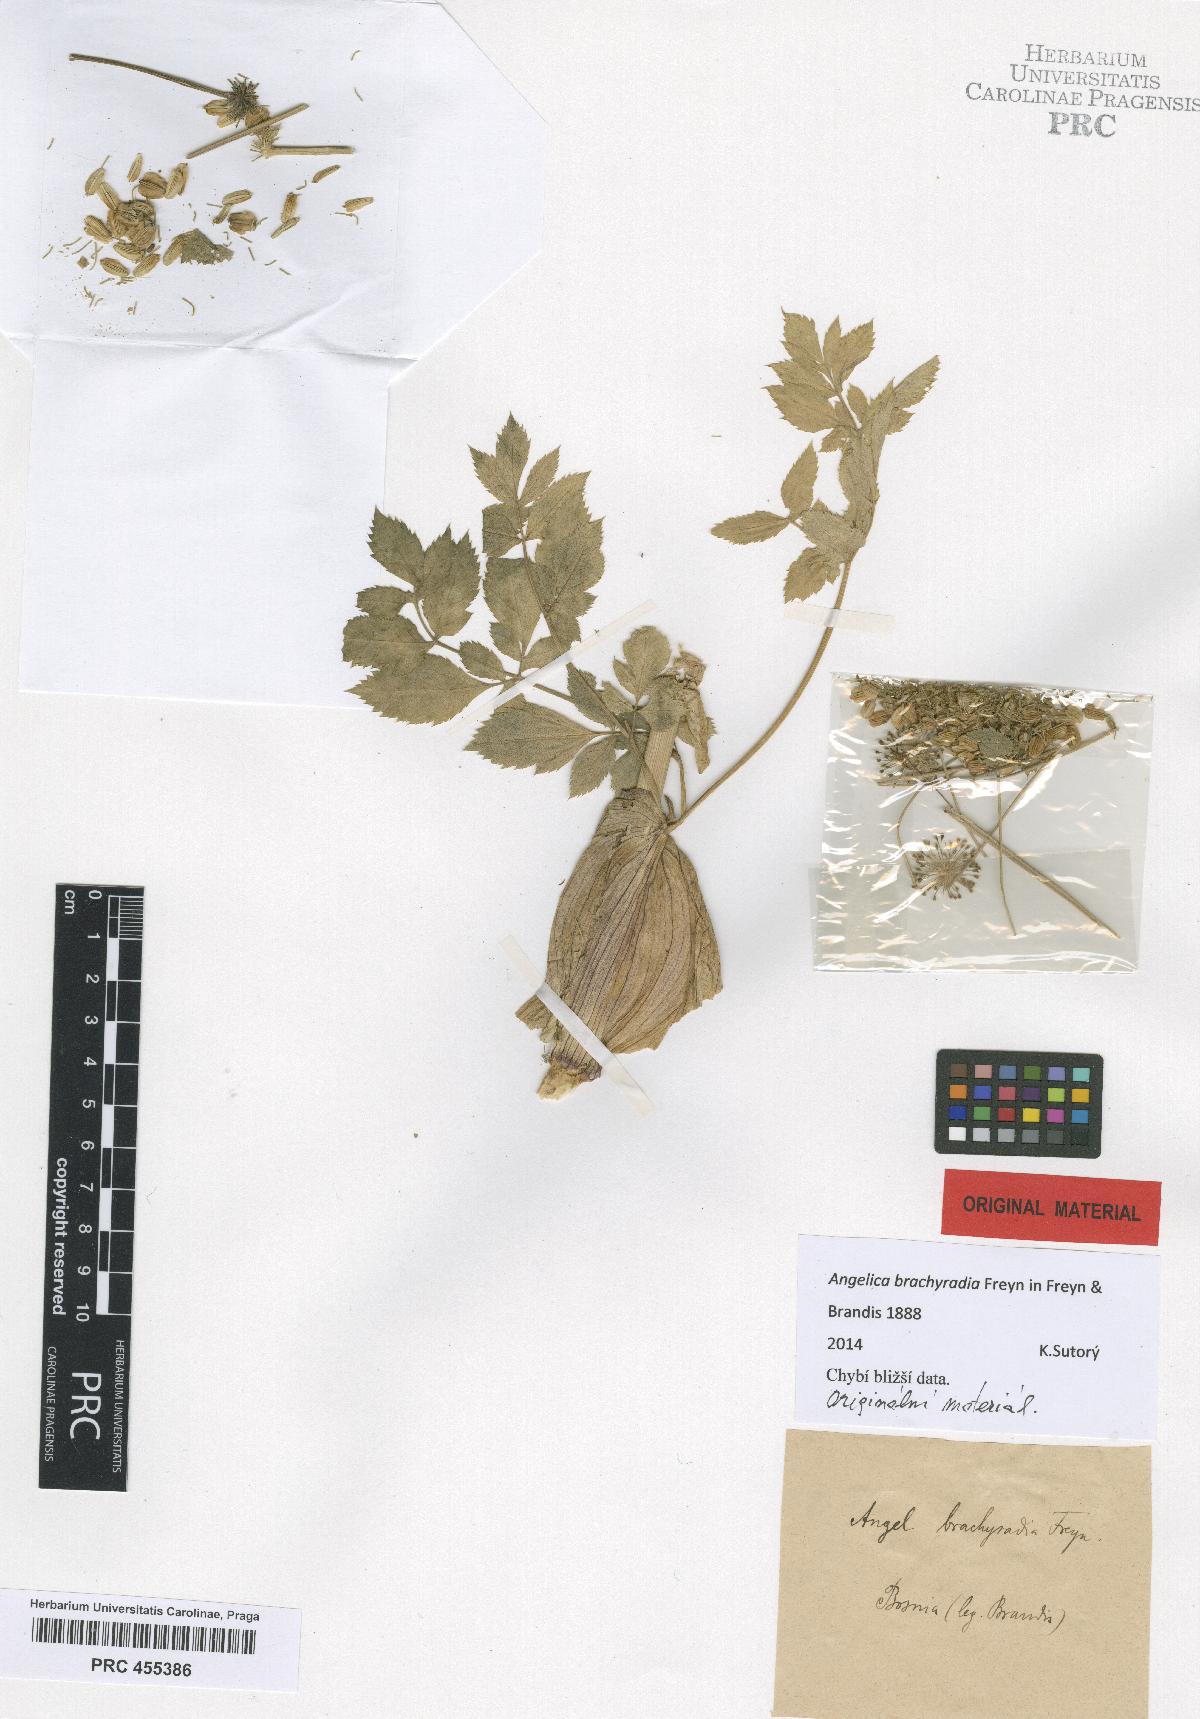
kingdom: Plantae
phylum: Tracheophyta
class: Magnoliopsida
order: Apiales
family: Apiaceae
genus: Angelica
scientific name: Angelica sylvestris
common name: Wild angelica
